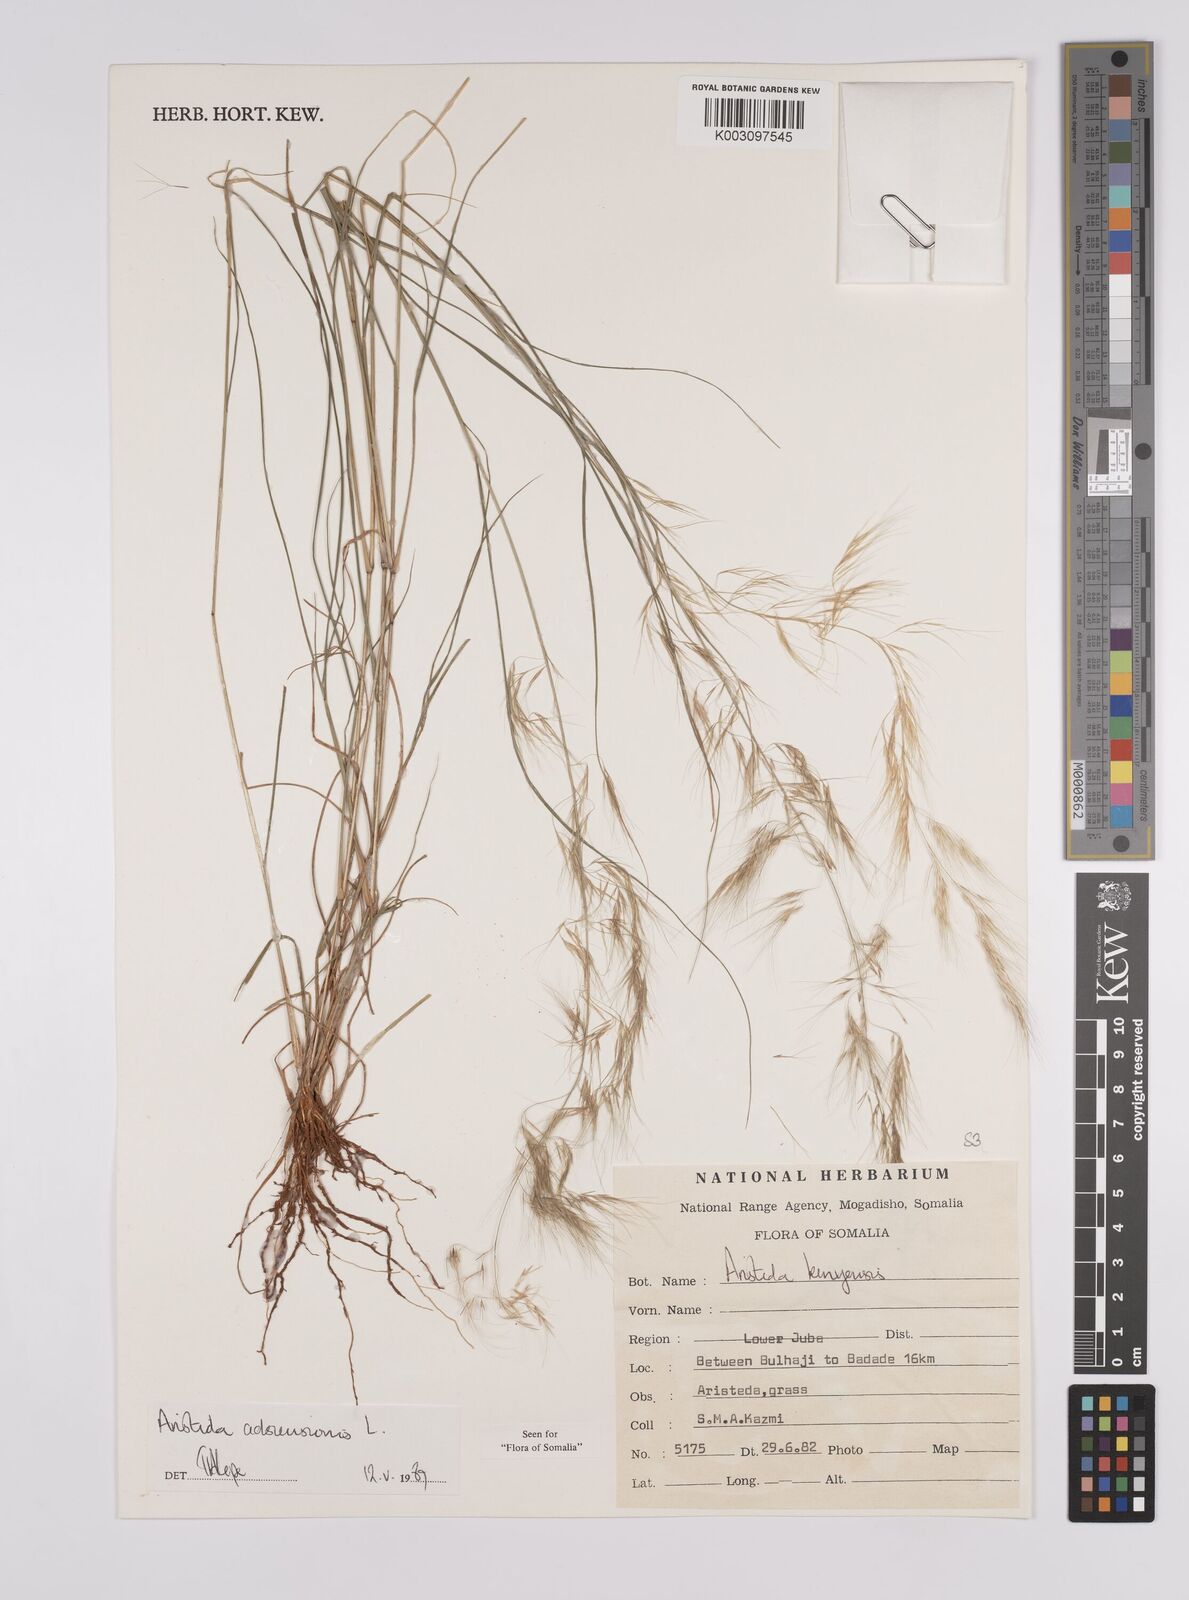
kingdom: Plantae
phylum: Tracheophyta
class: Liliopsida
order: Poales
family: Poaceae
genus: Aristida
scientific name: Aristida laevis
